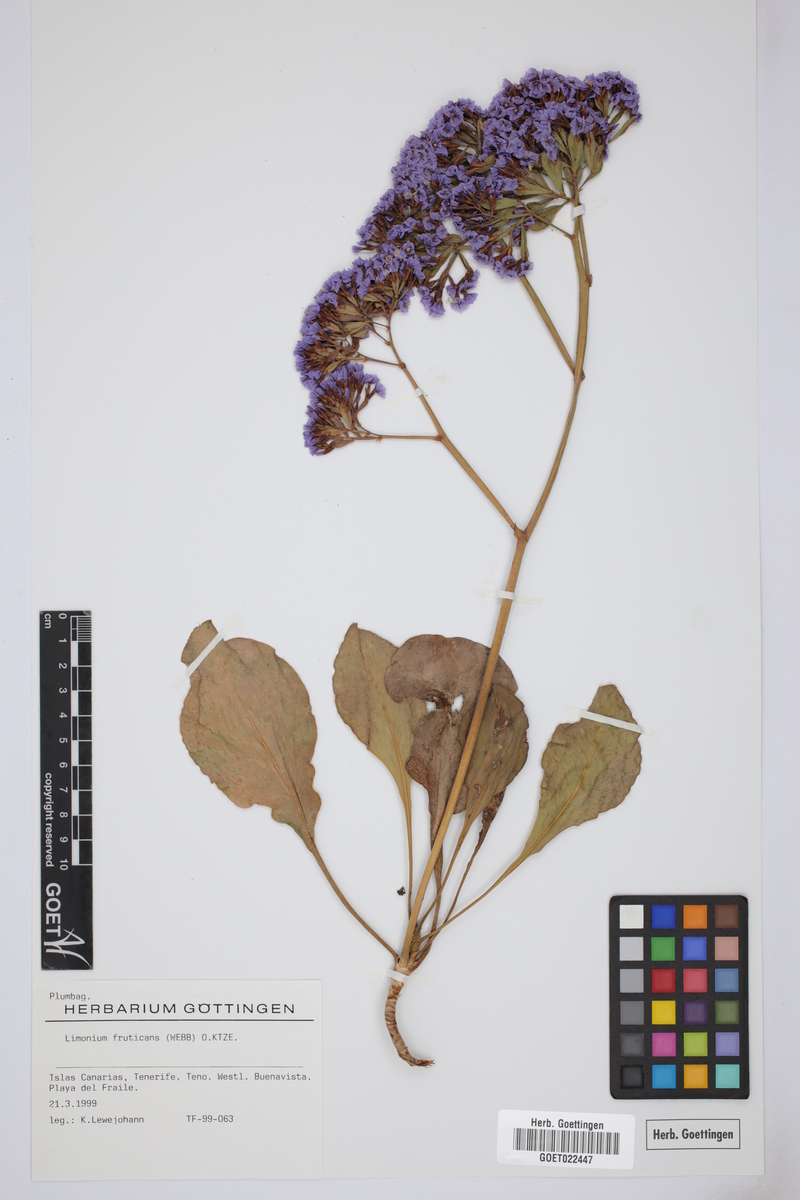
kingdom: Plantae
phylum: Tracheophyta
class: Magnoliopsida
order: Caryophyllales
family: Plumbaginaceae
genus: Limonium
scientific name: Limonium frutescens
